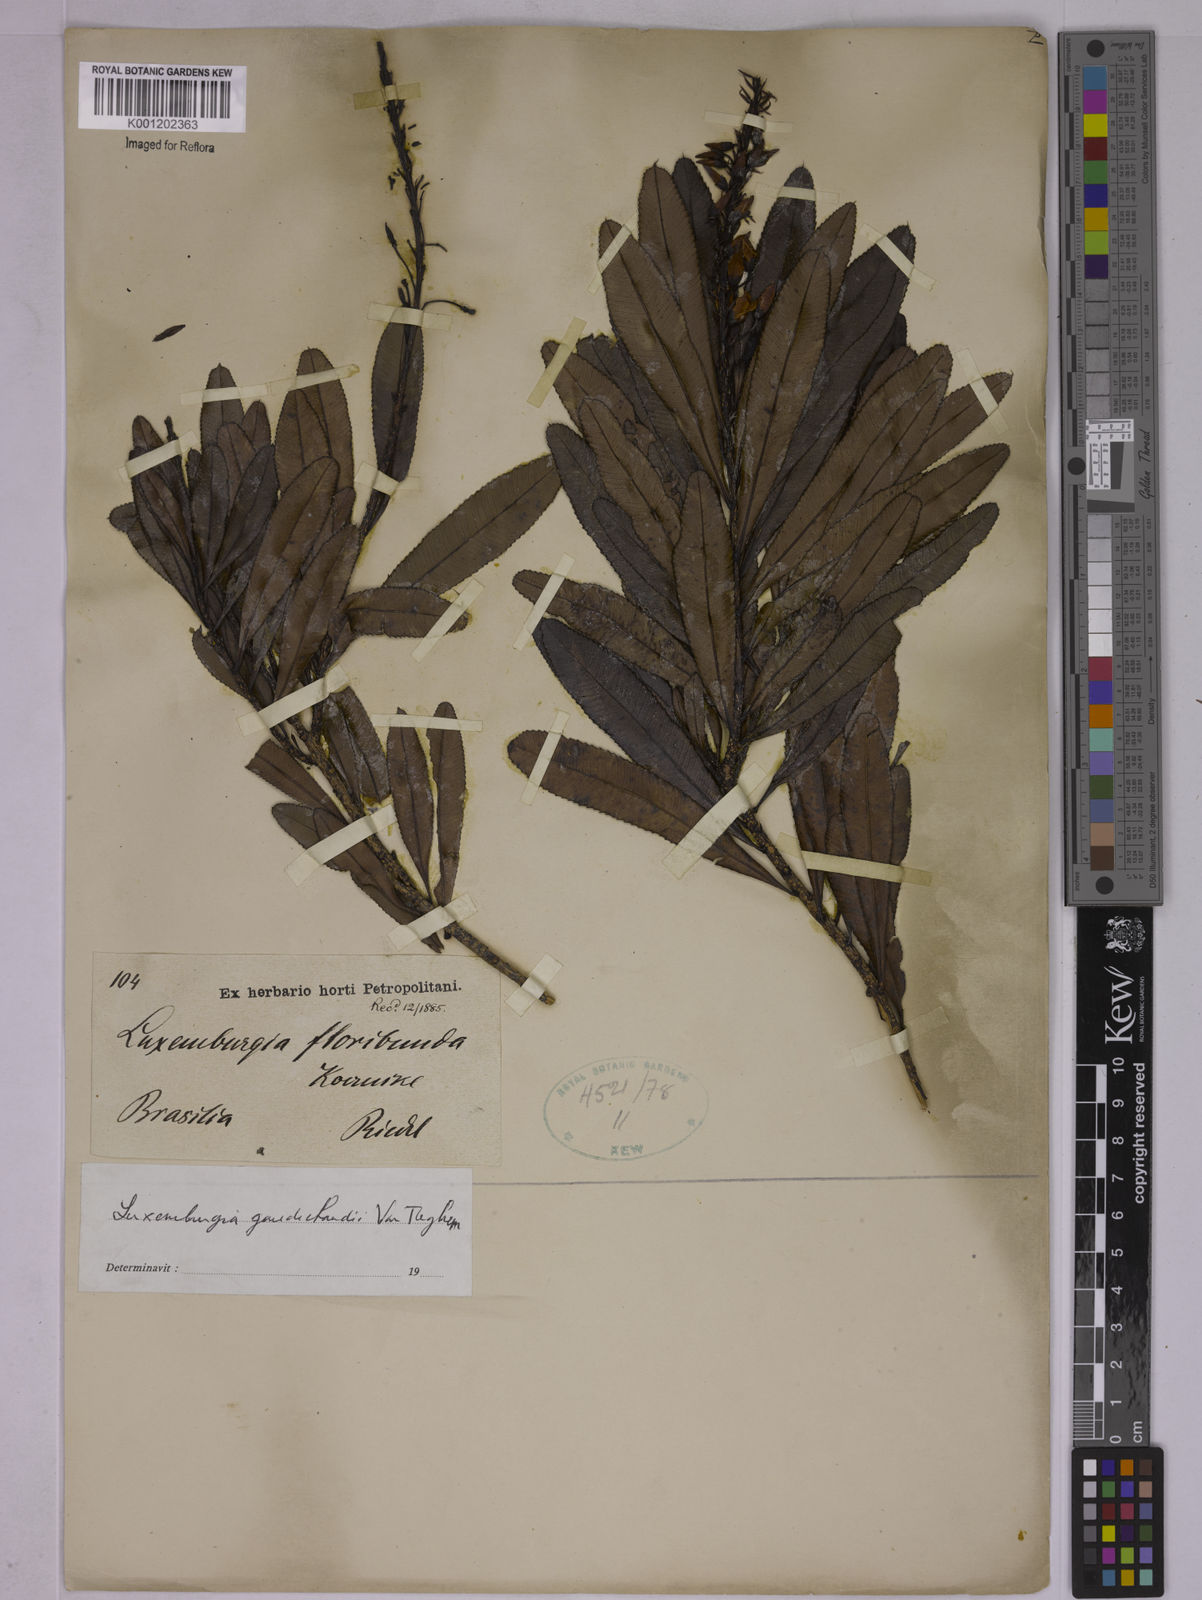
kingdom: Plantae
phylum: Tracheophyta
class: Magnoliopsida
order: Malpighiales
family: Ochnaceae
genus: Luxemburgia
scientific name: Luxemburgia gaudichaudii
